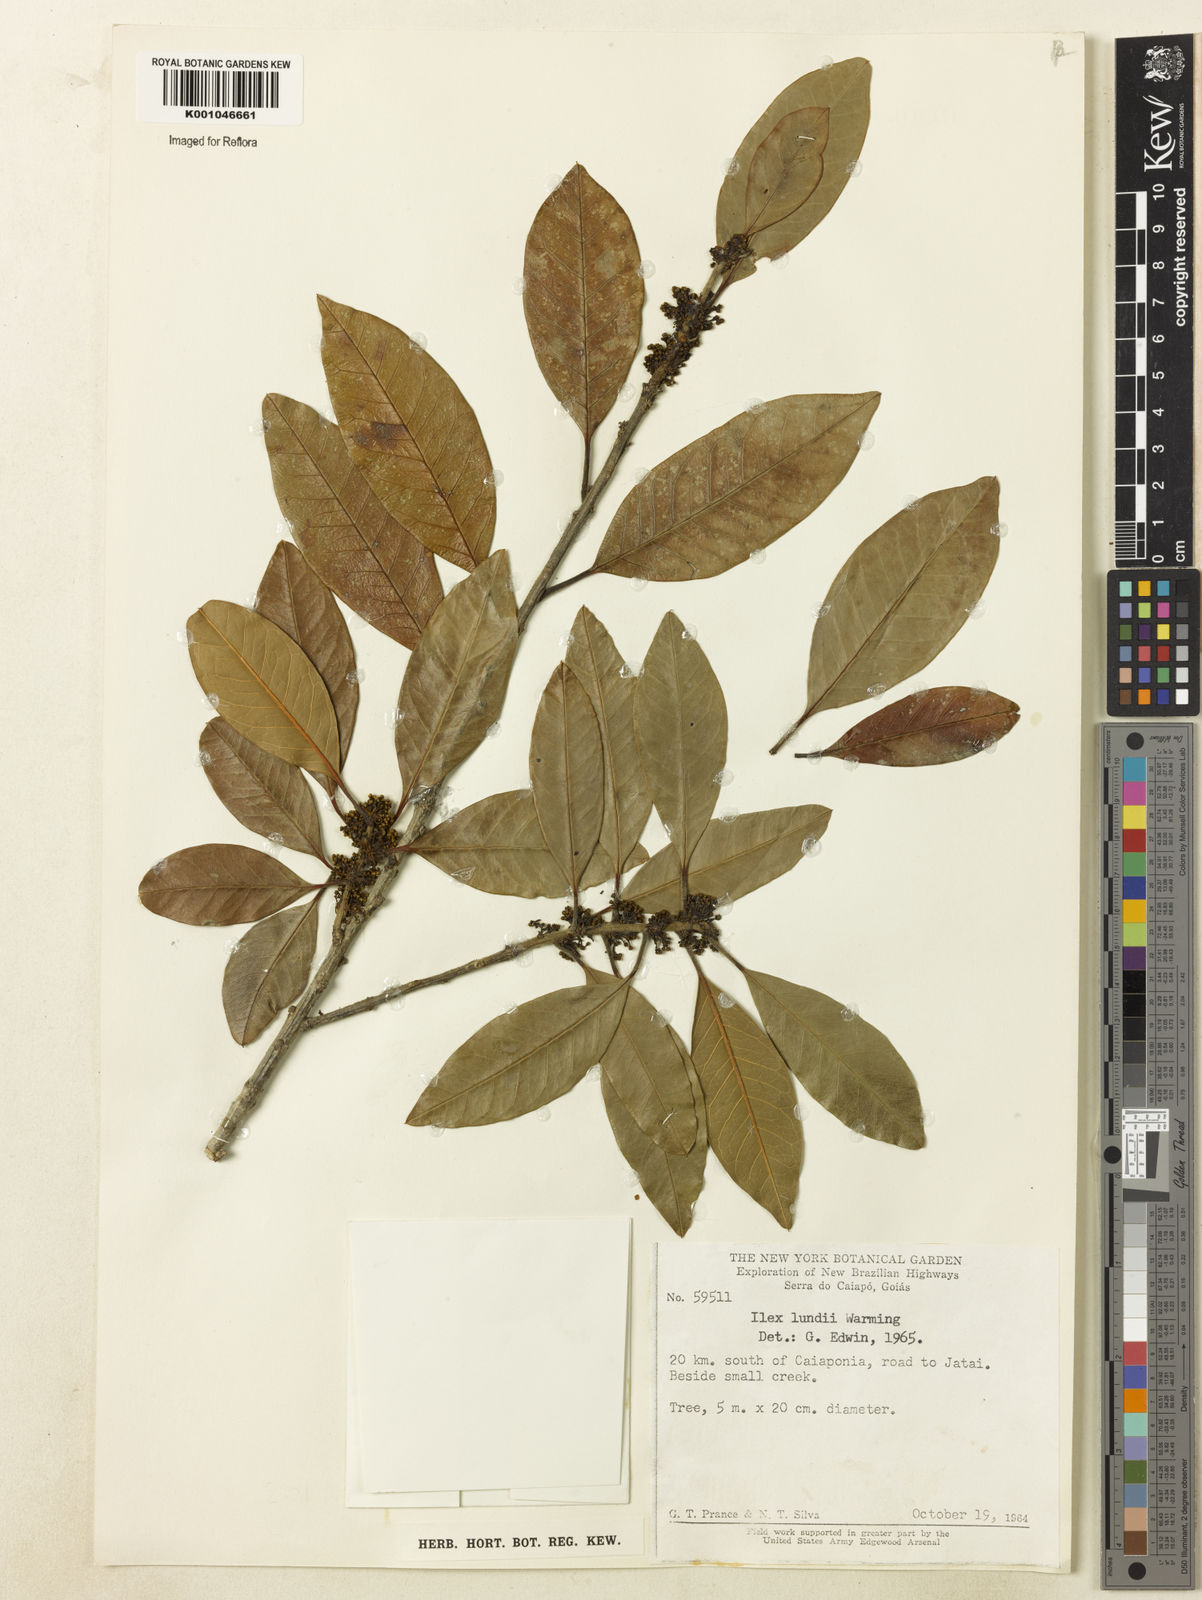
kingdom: Plantae
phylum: Tracheophyta
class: Magnoliopsida
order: Aquifoliales
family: Aquifoliaceae
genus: Ilex
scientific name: Ilex lundii
